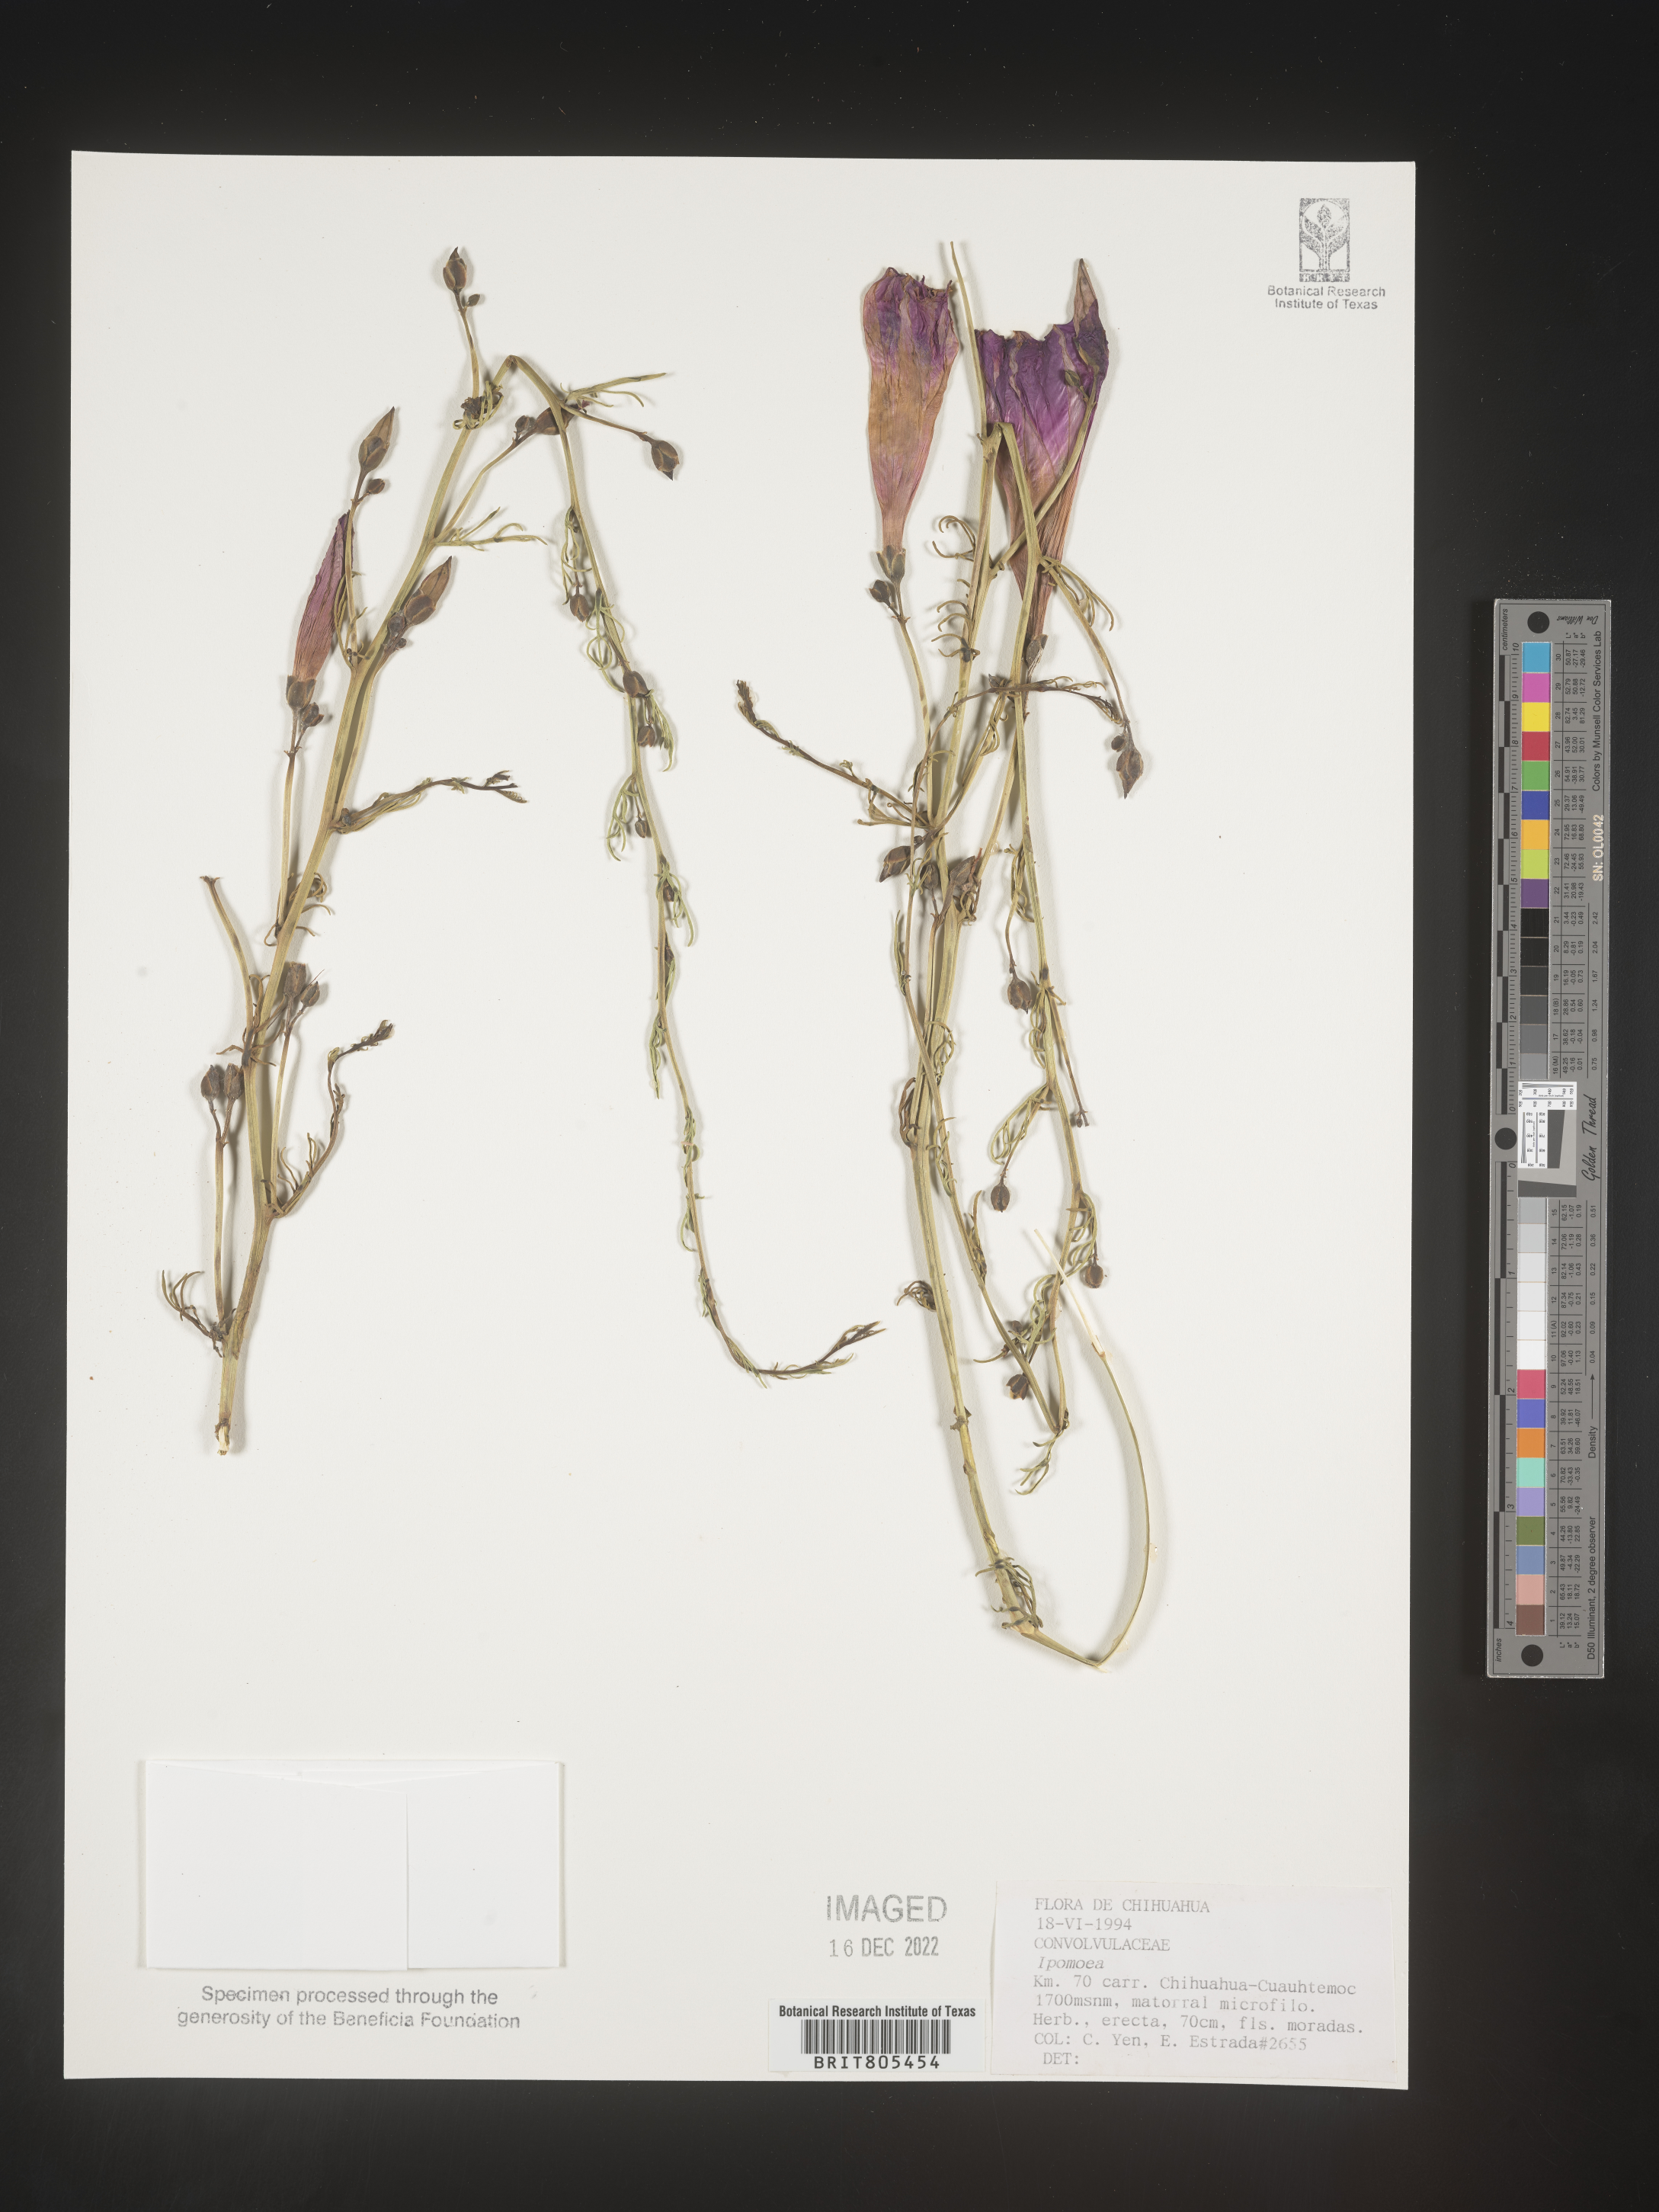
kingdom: Plantae
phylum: Tracheophyta
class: Magnoliopsida
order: Solanales
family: Convolvulaceae
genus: Ipomoea
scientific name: Ipomoea
